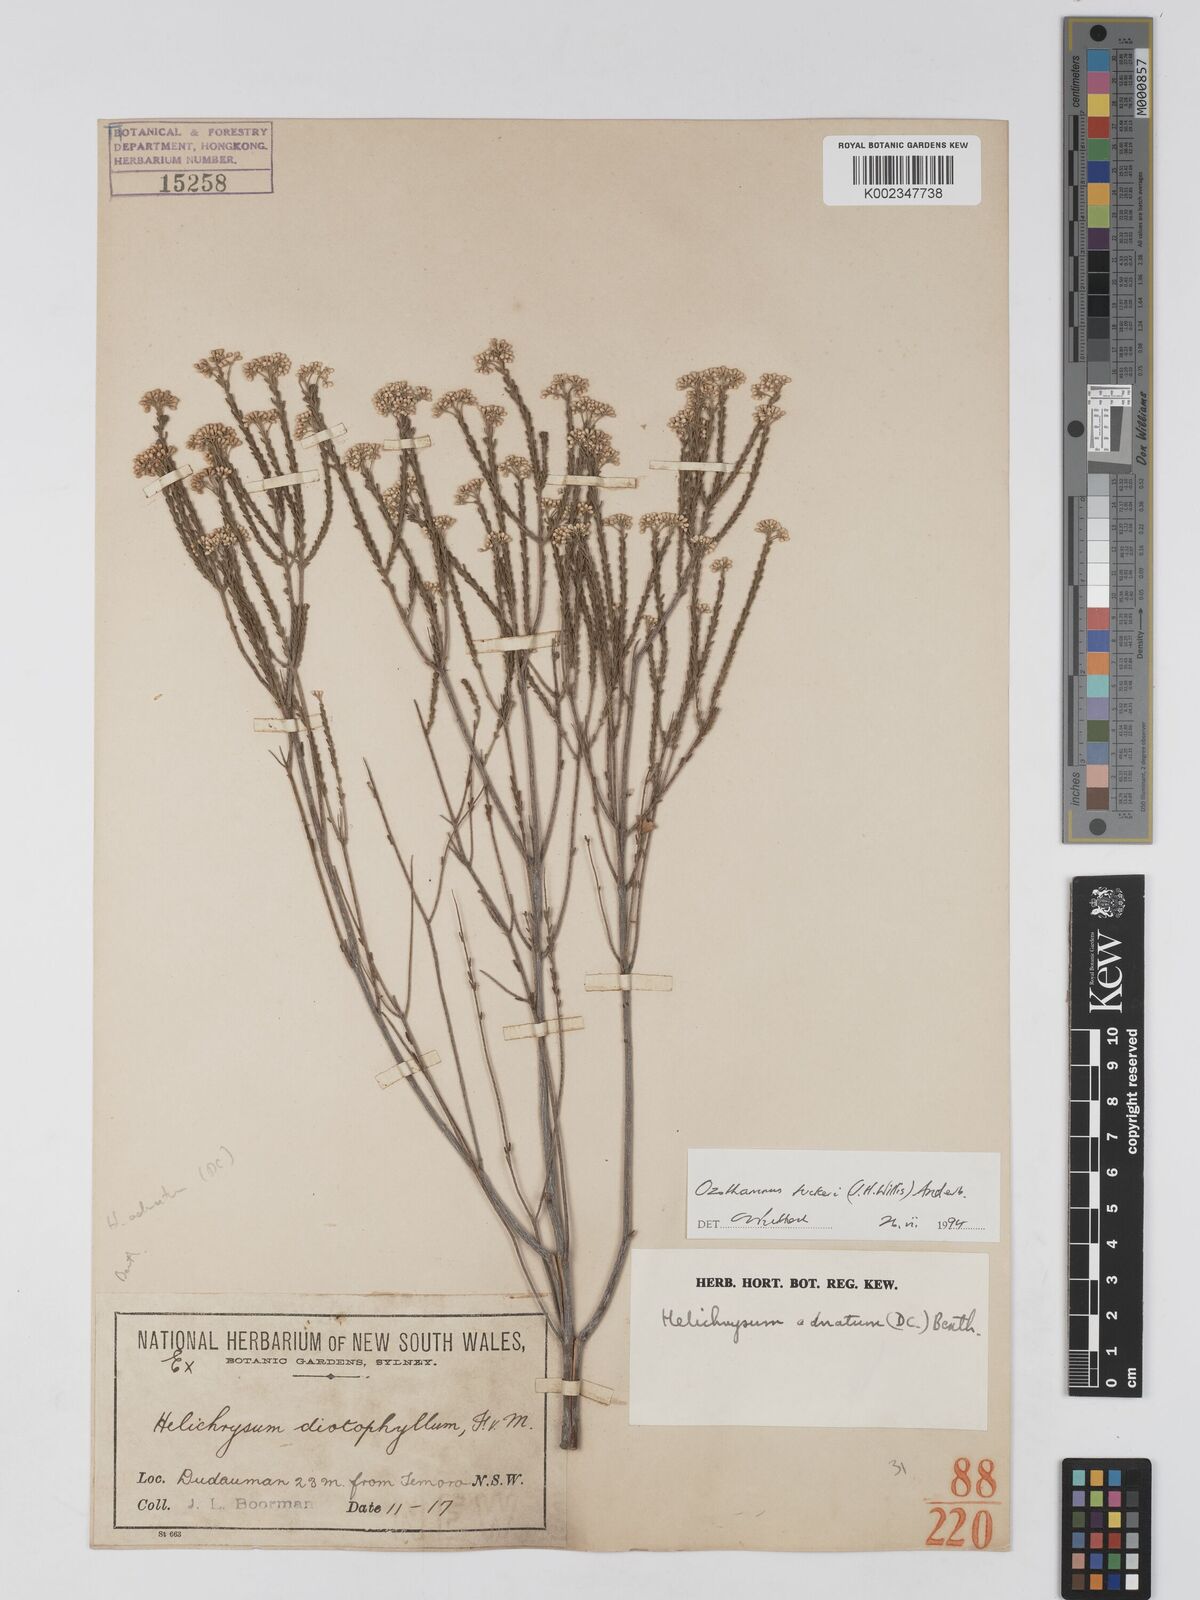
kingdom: Plantae
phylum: Tracheophyta
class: Magnoliopsida
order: Asterales
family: Asteraceae
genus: Ozothamnus
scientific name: Ozothamnus tuckeri
